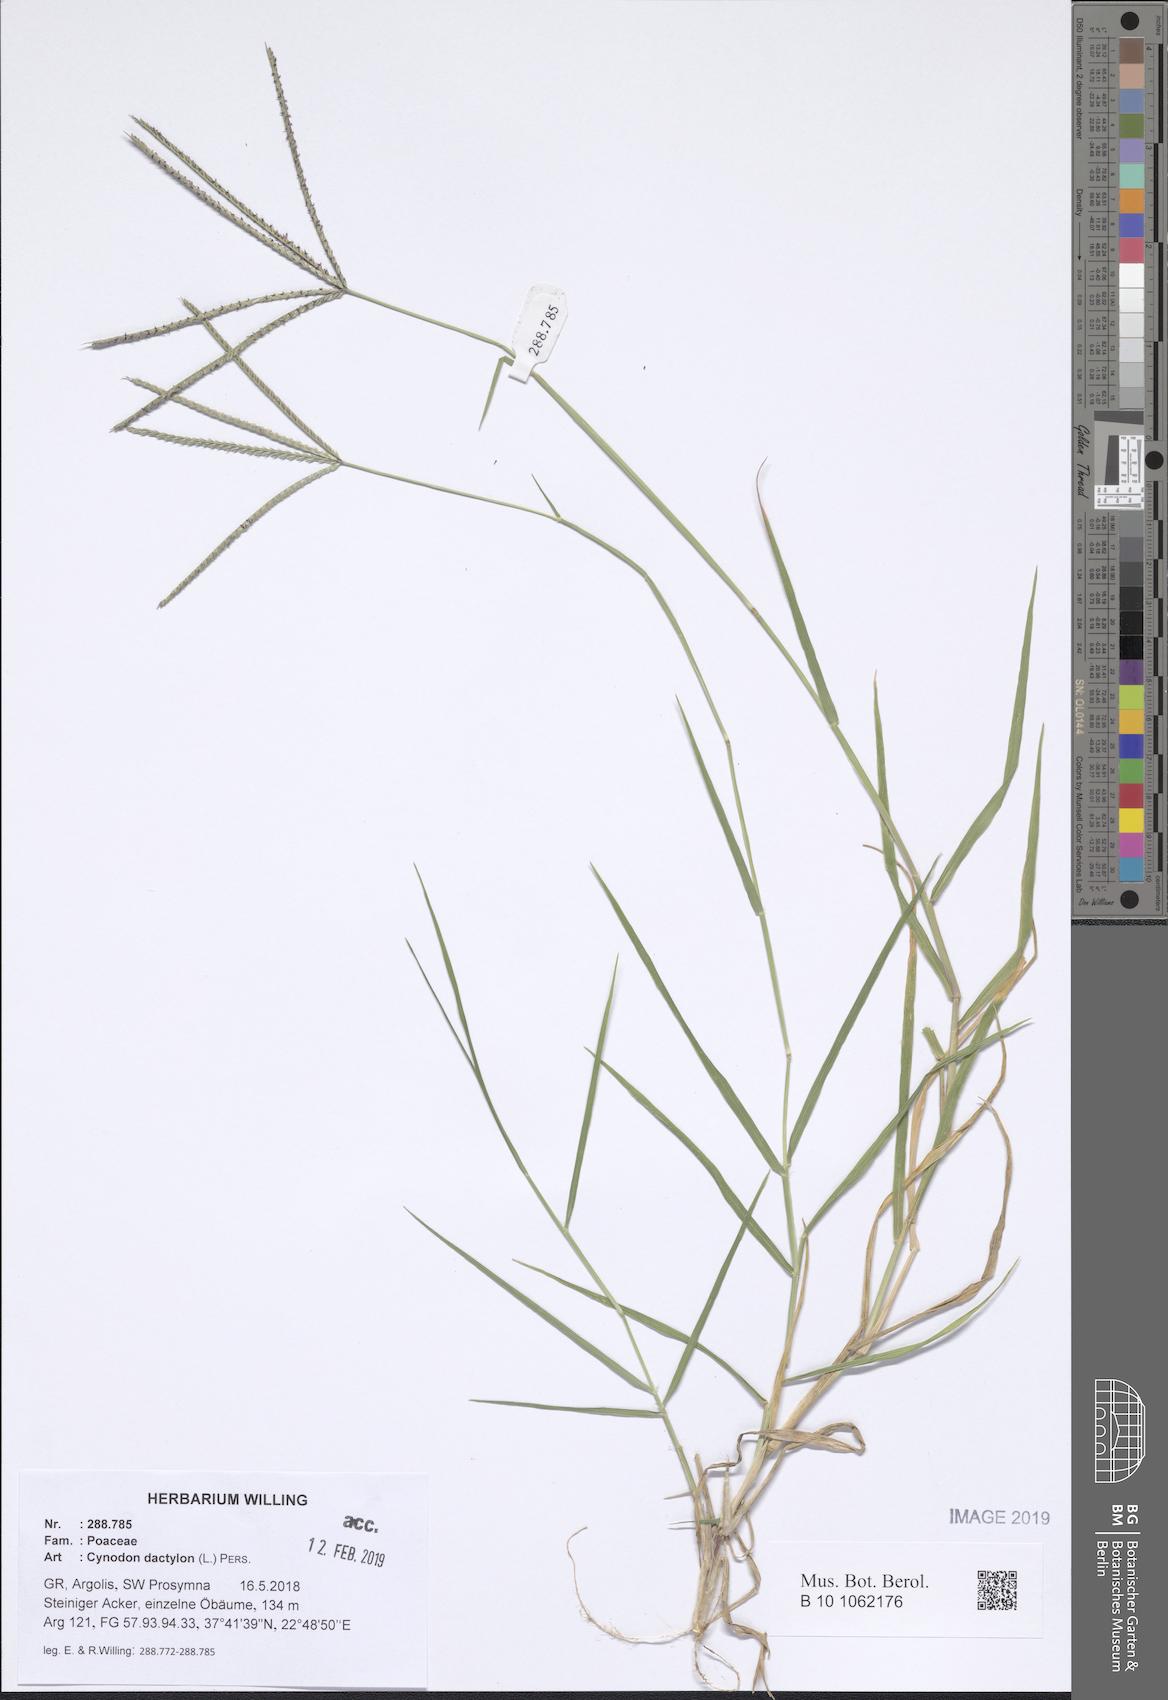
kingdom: Plantae
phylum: Tracheophyta
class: Liliopsida
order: Poales
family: Poaceae
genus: Cynodon
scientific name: Cynodon dactylon
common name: Bermuda grass
